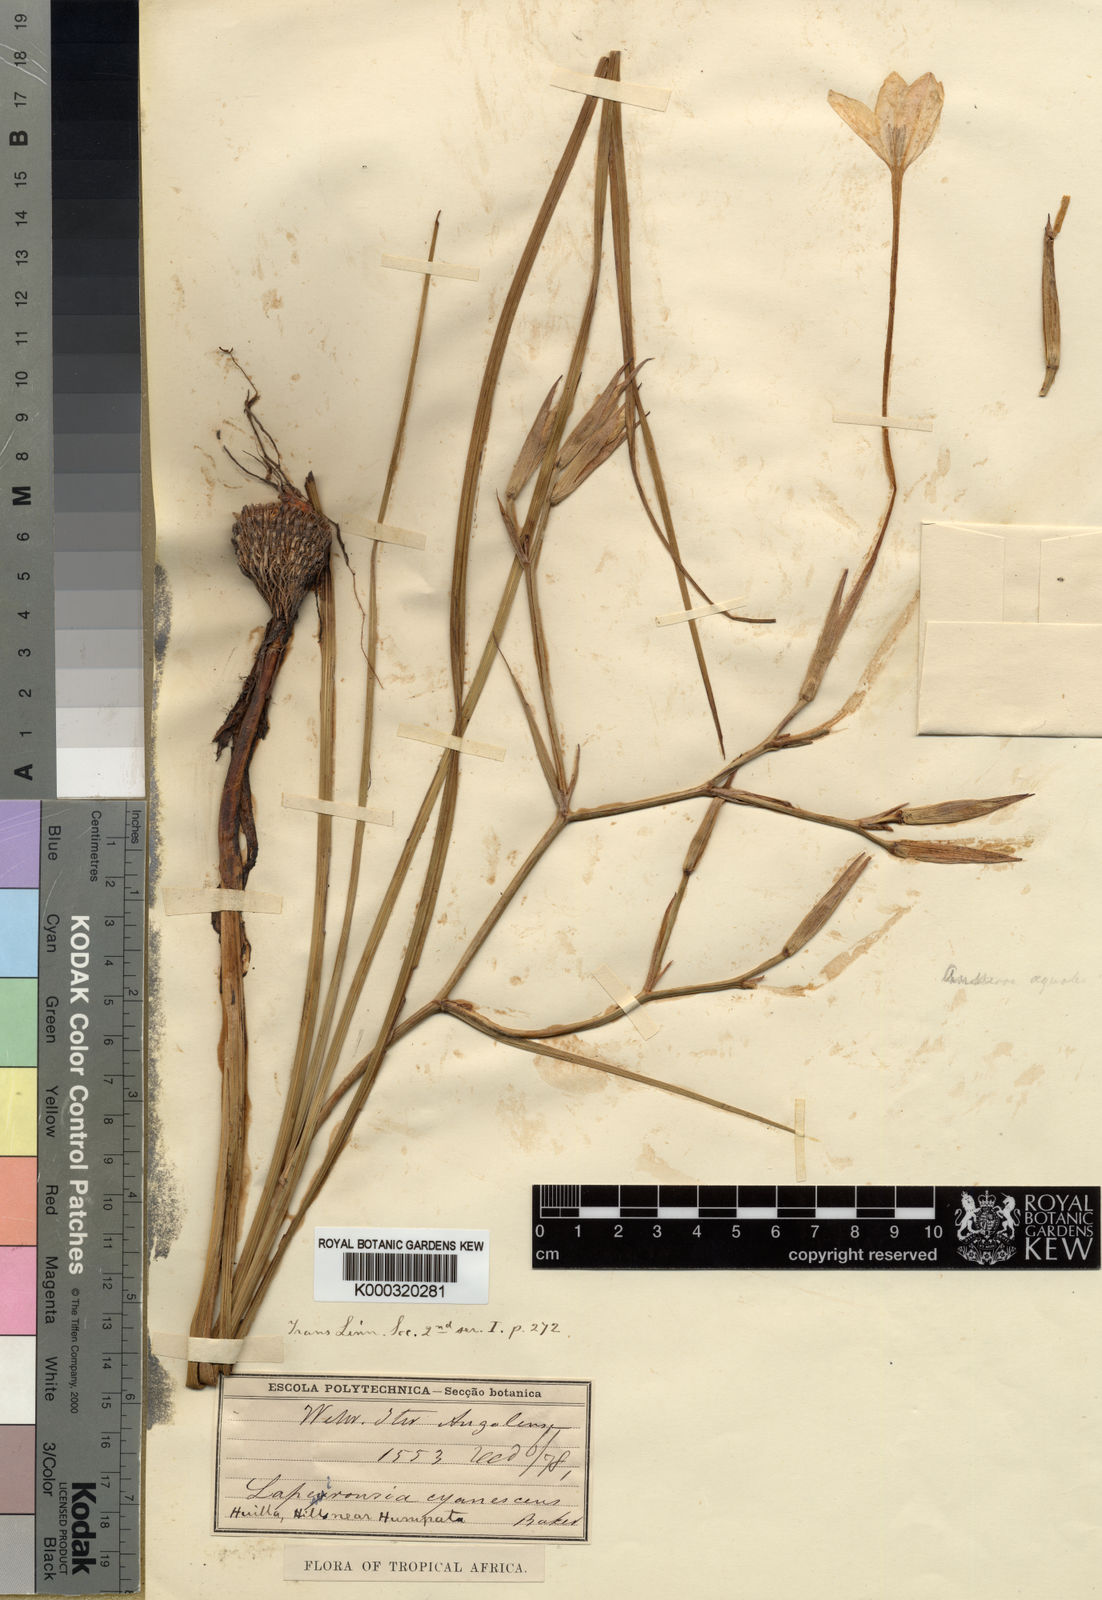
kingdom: Plantae
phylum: Tracheophyta
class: Liliopsida
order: Asparagales
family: Iridaceae
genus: Afrosolen
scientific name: Afrosolen schimperi
